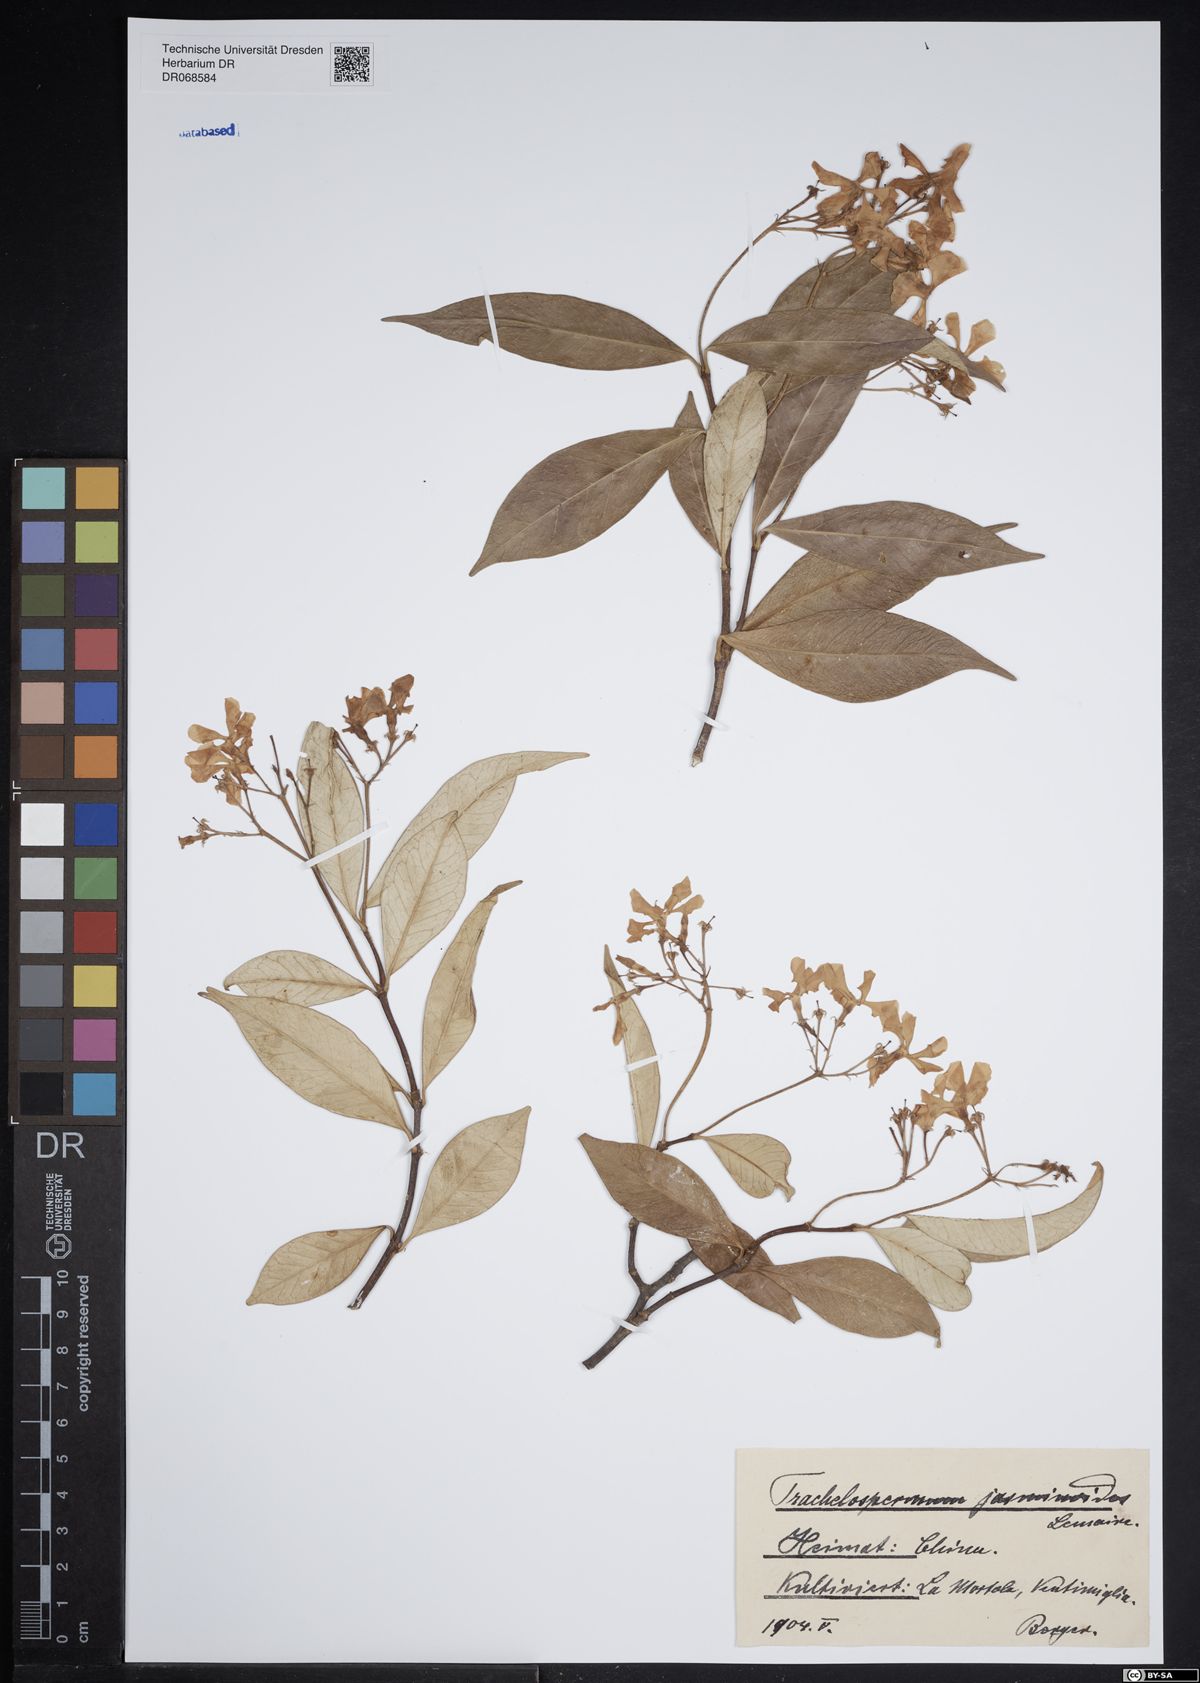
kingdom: Plantae
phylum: Tracheophyta
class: Magnoliopsida
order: Gentianales
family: Apocynaceae
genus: Trachelospermum
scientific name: Trachelospermum jasminoides
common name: Confederate jasmine
